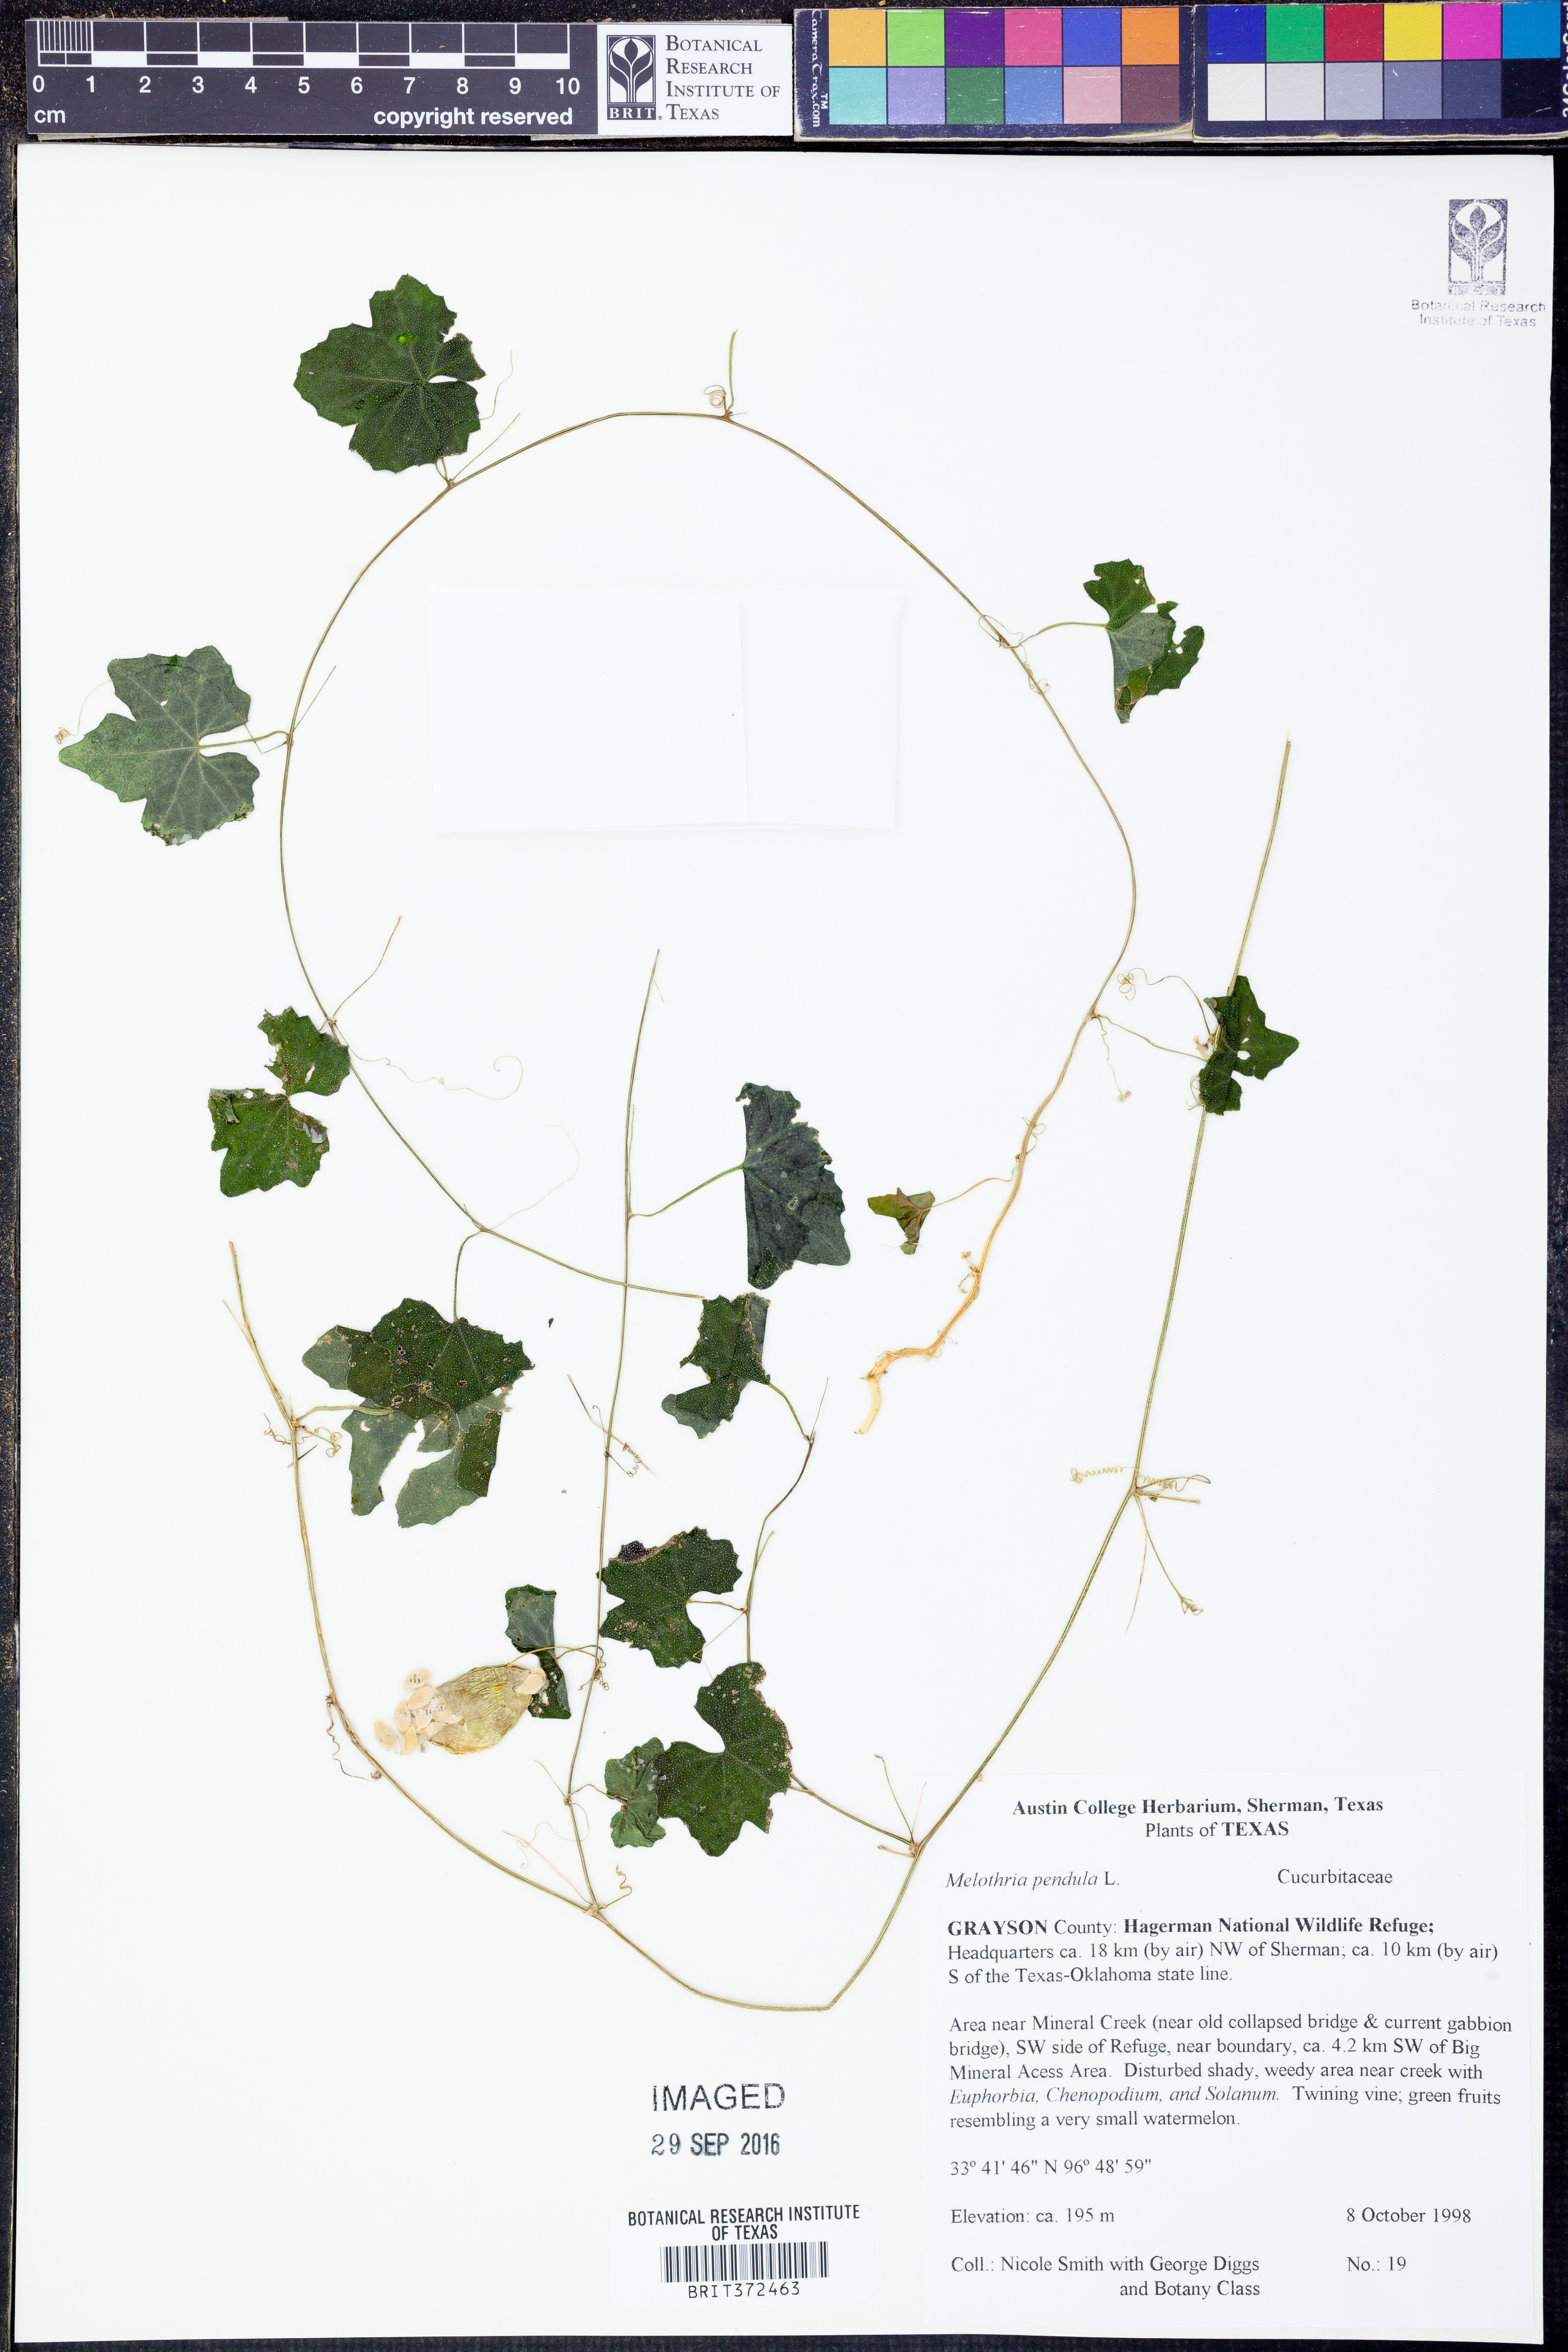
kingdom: Plantae
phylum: Tracheophyta
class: Magnoliopsida
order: Cucurbitales
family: Cucurbitaceae
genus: Melothria
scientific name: Melothria pendula
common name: Creeping-cucumber
